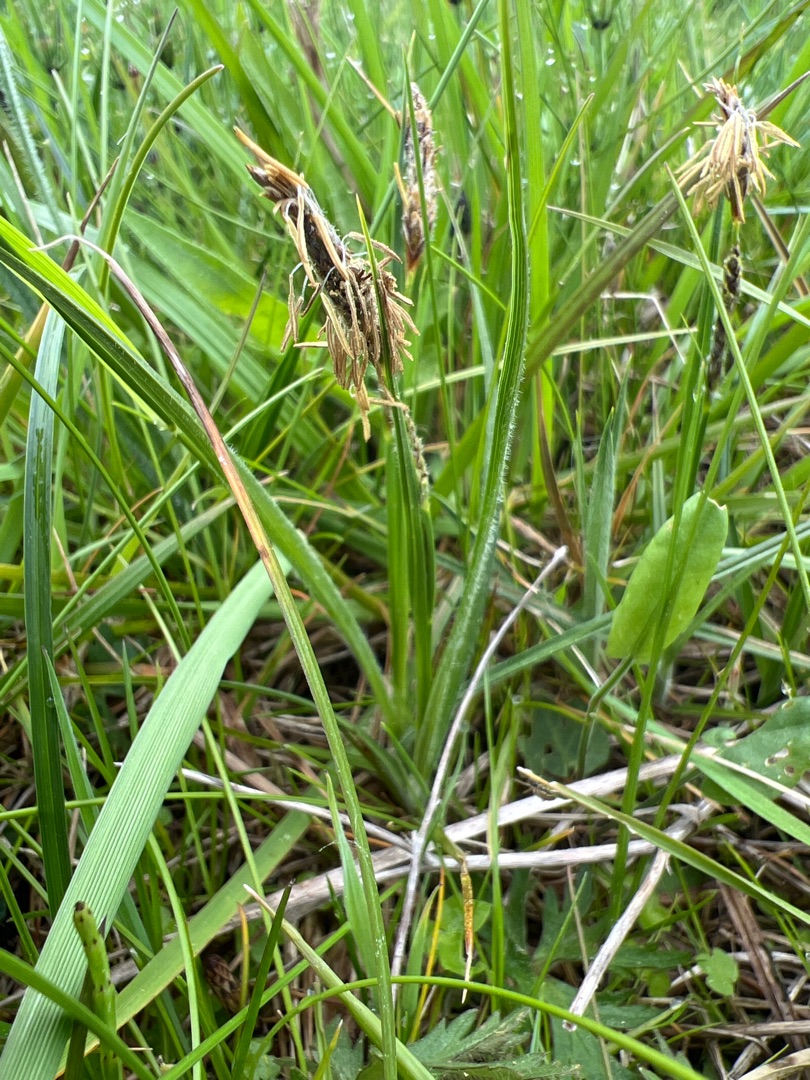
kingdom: Plantae
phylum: Tracheophyta
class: Liliopsida
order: Poales
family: Cyperaceae
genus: Carex
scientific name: Carex hirta
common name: Håret star
